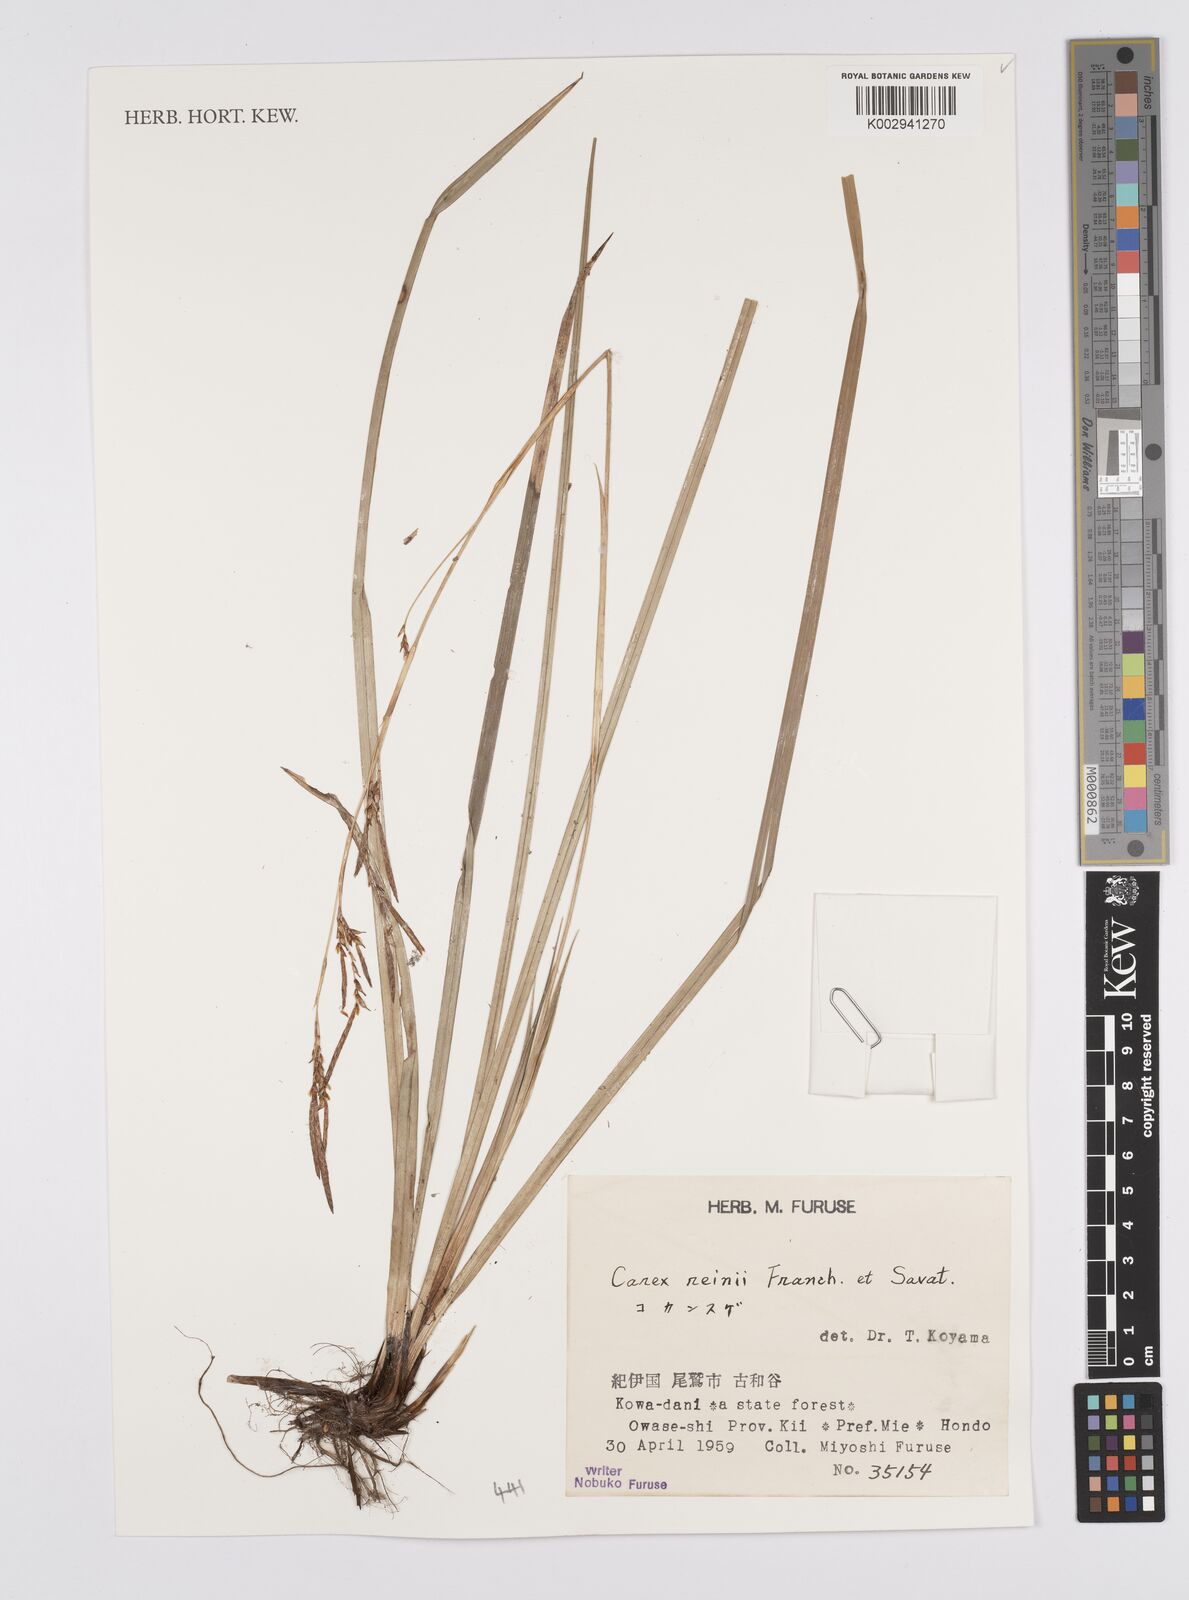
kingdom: Plantae
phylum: Tracheophyta
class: Liliopsida
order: Poales
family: Cyperaceae
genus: Carex
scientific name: Carex reinii
